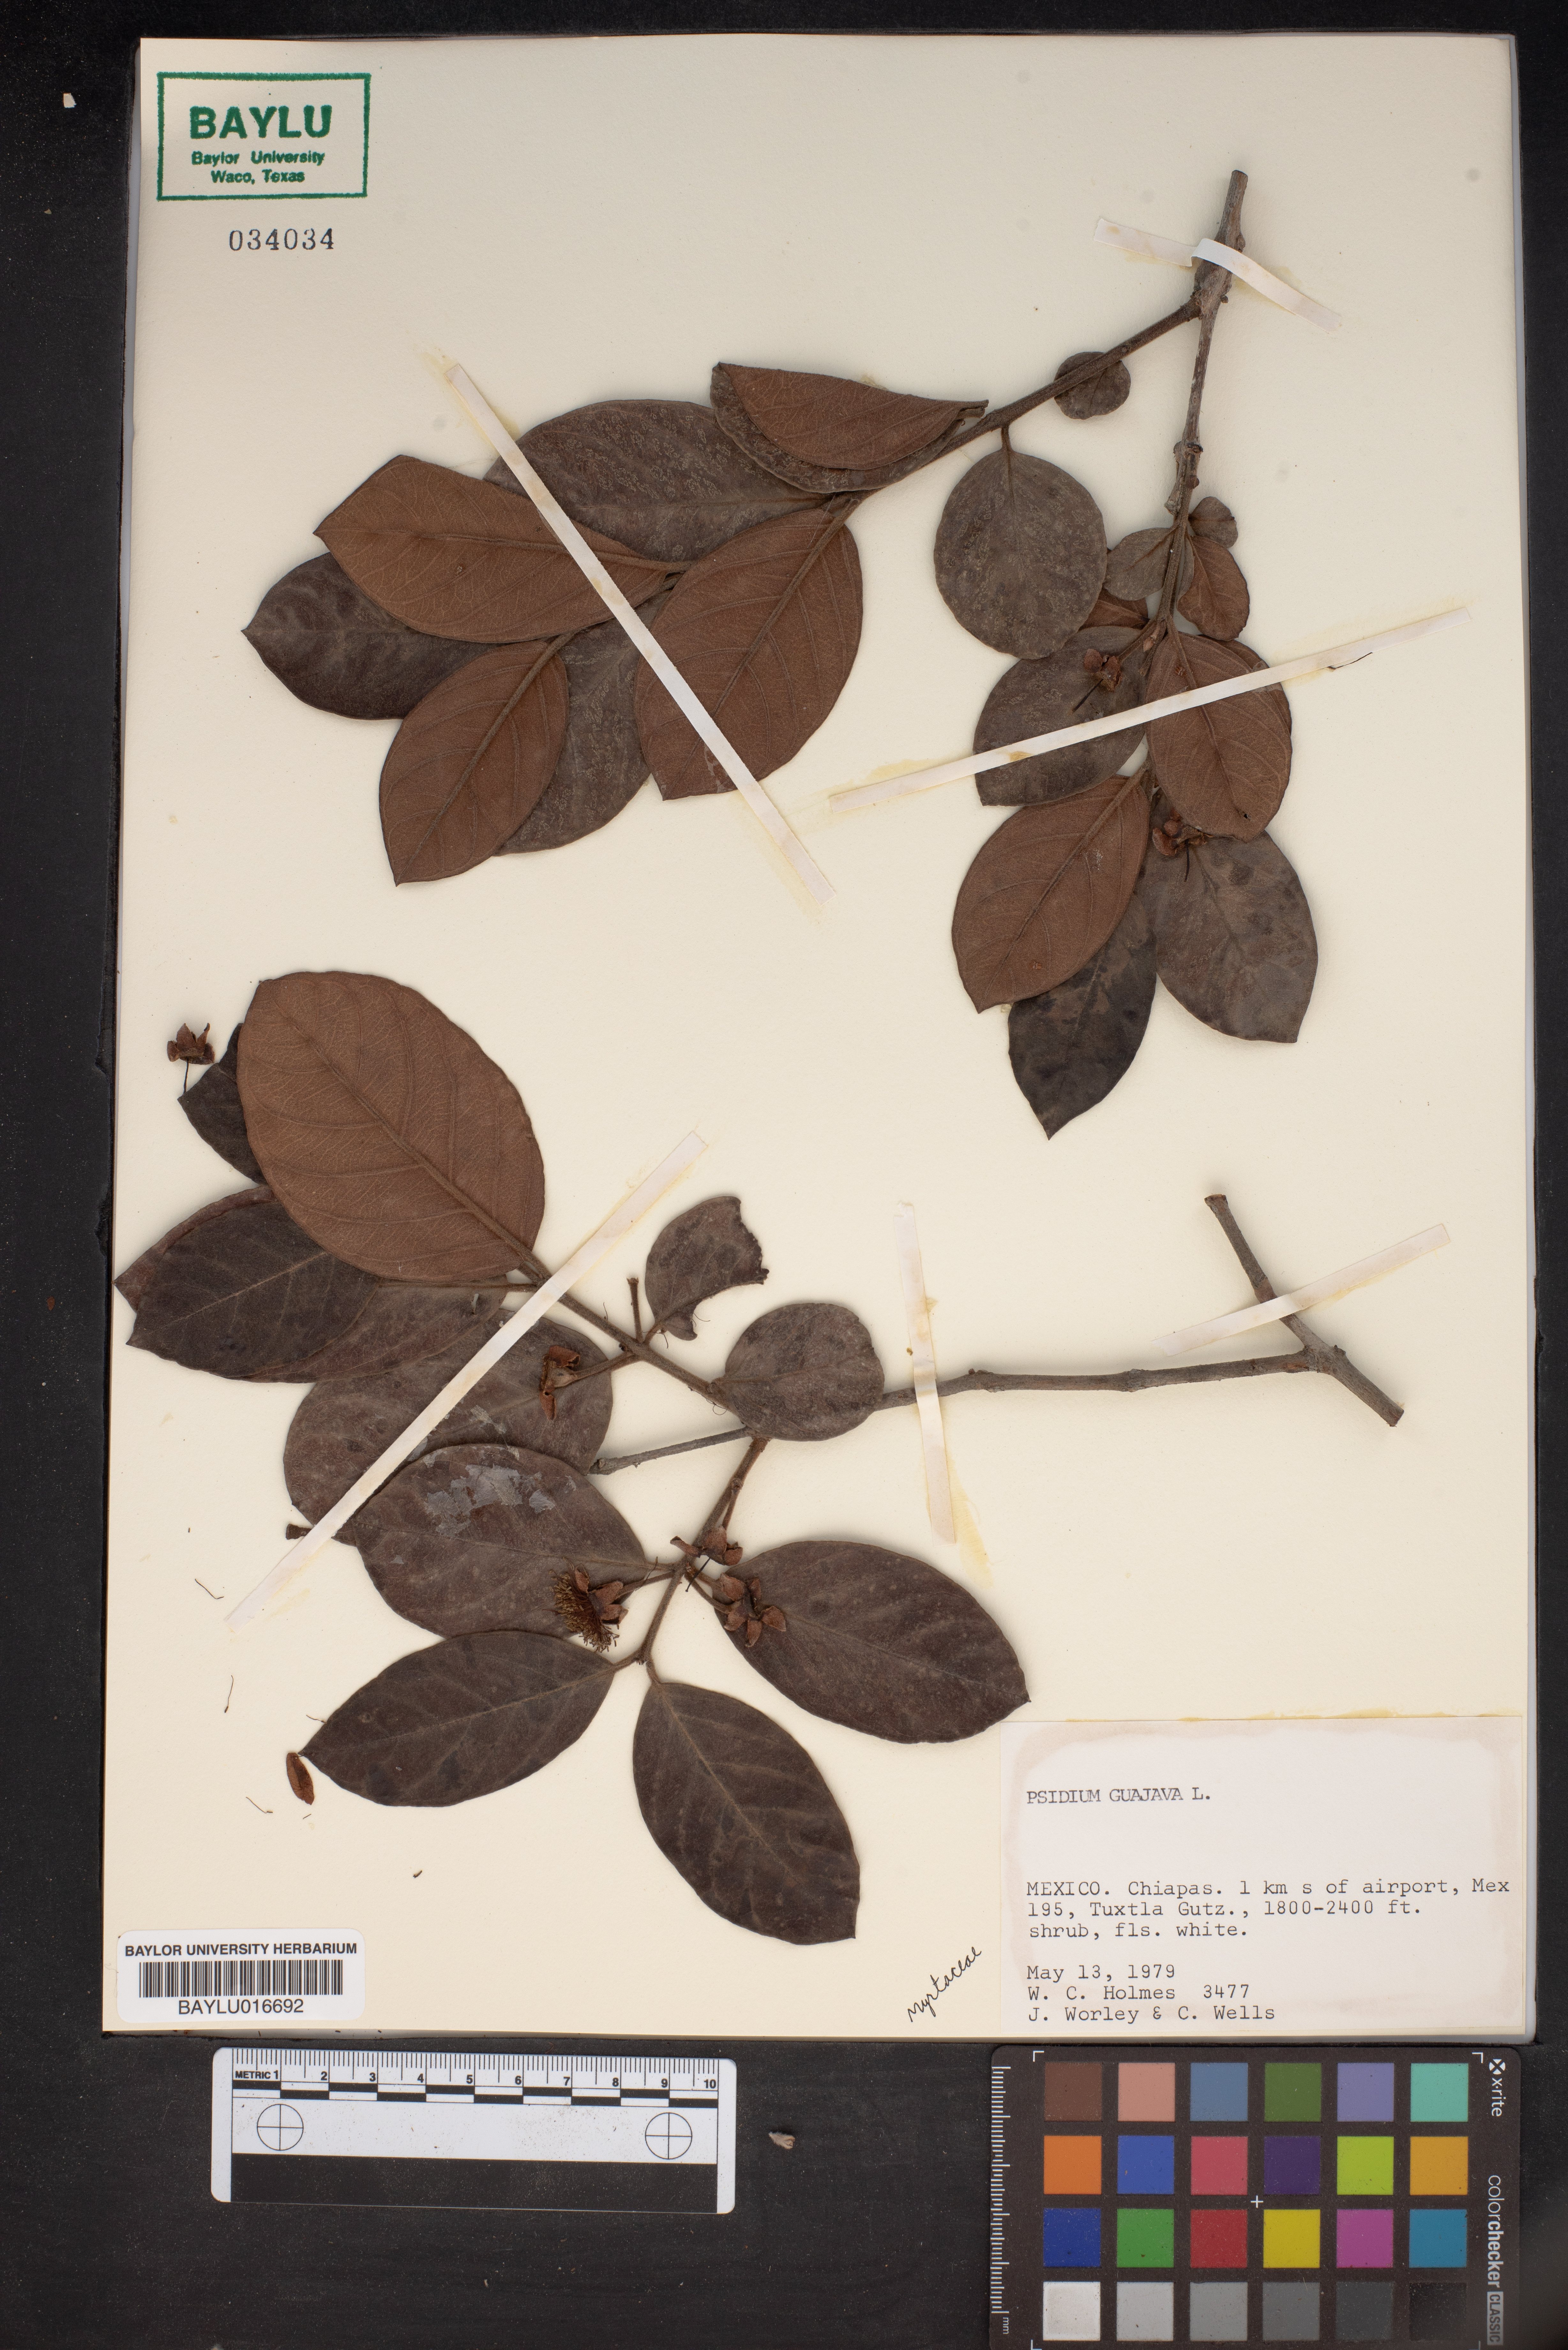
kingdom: Plantae
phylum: Tracheophyta
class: Magnoliopsida
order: Myrtales
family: Myrtaceae
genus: Psidium
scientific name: Psidium guajava
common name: Guava
